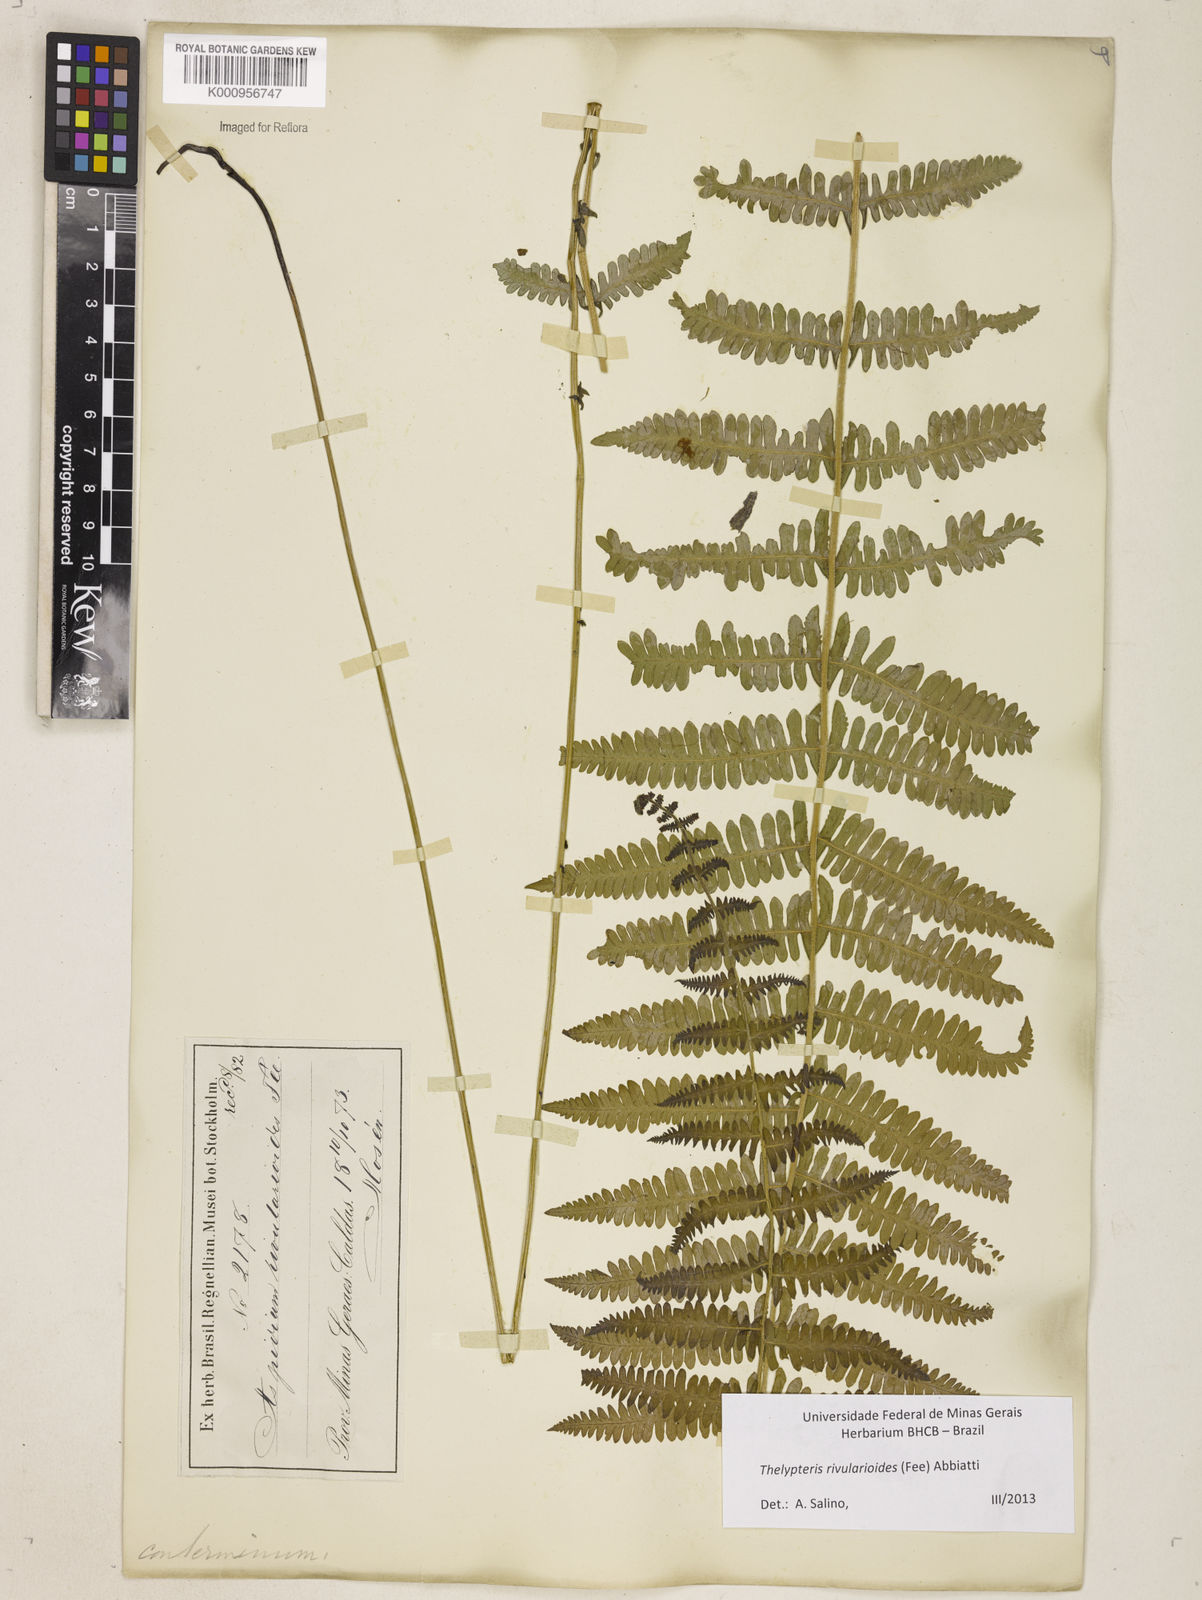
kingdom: Plantae
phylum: Tracheophyta
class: Polypodiopsida
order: Polypodiales
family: Thelypteridaceae
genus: Amauropelta
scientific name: Amauropelta rivularioides
